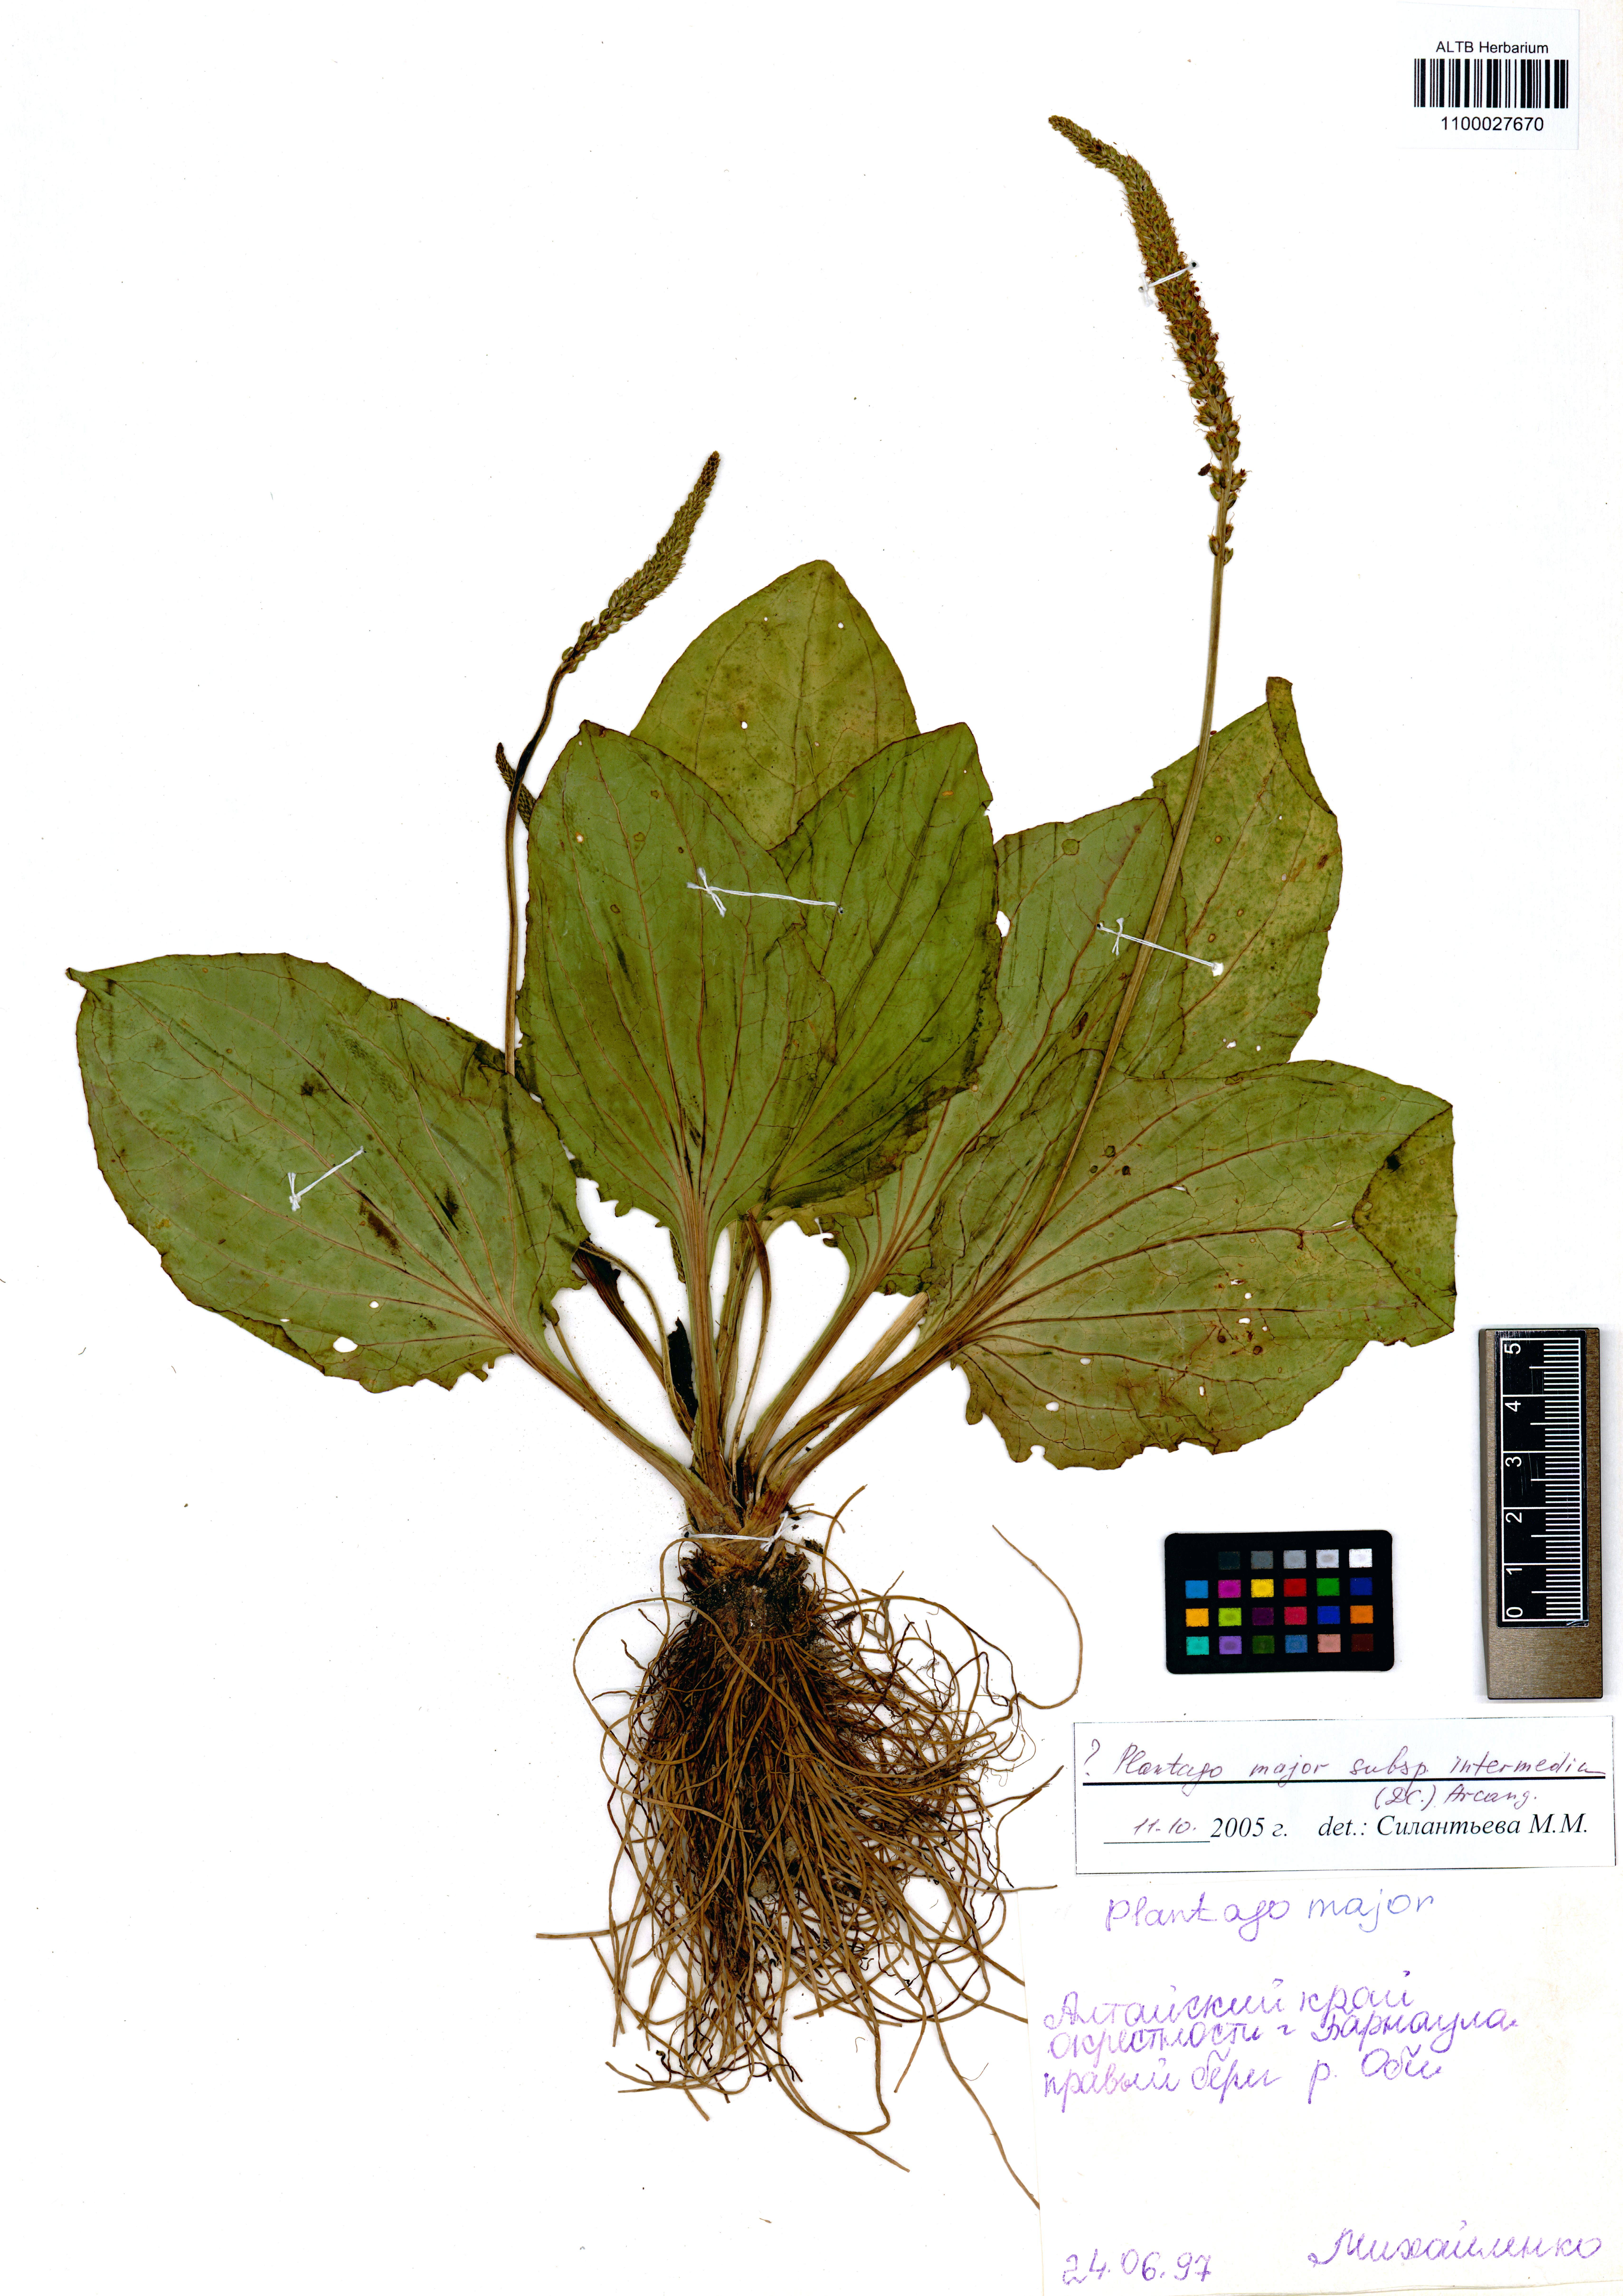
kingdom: Plantae
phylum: Tracheophyta
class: Magnoliopsida
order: Lamiales
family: Plantaginaceae
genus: Plantago
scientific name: Plantago uliginosa
